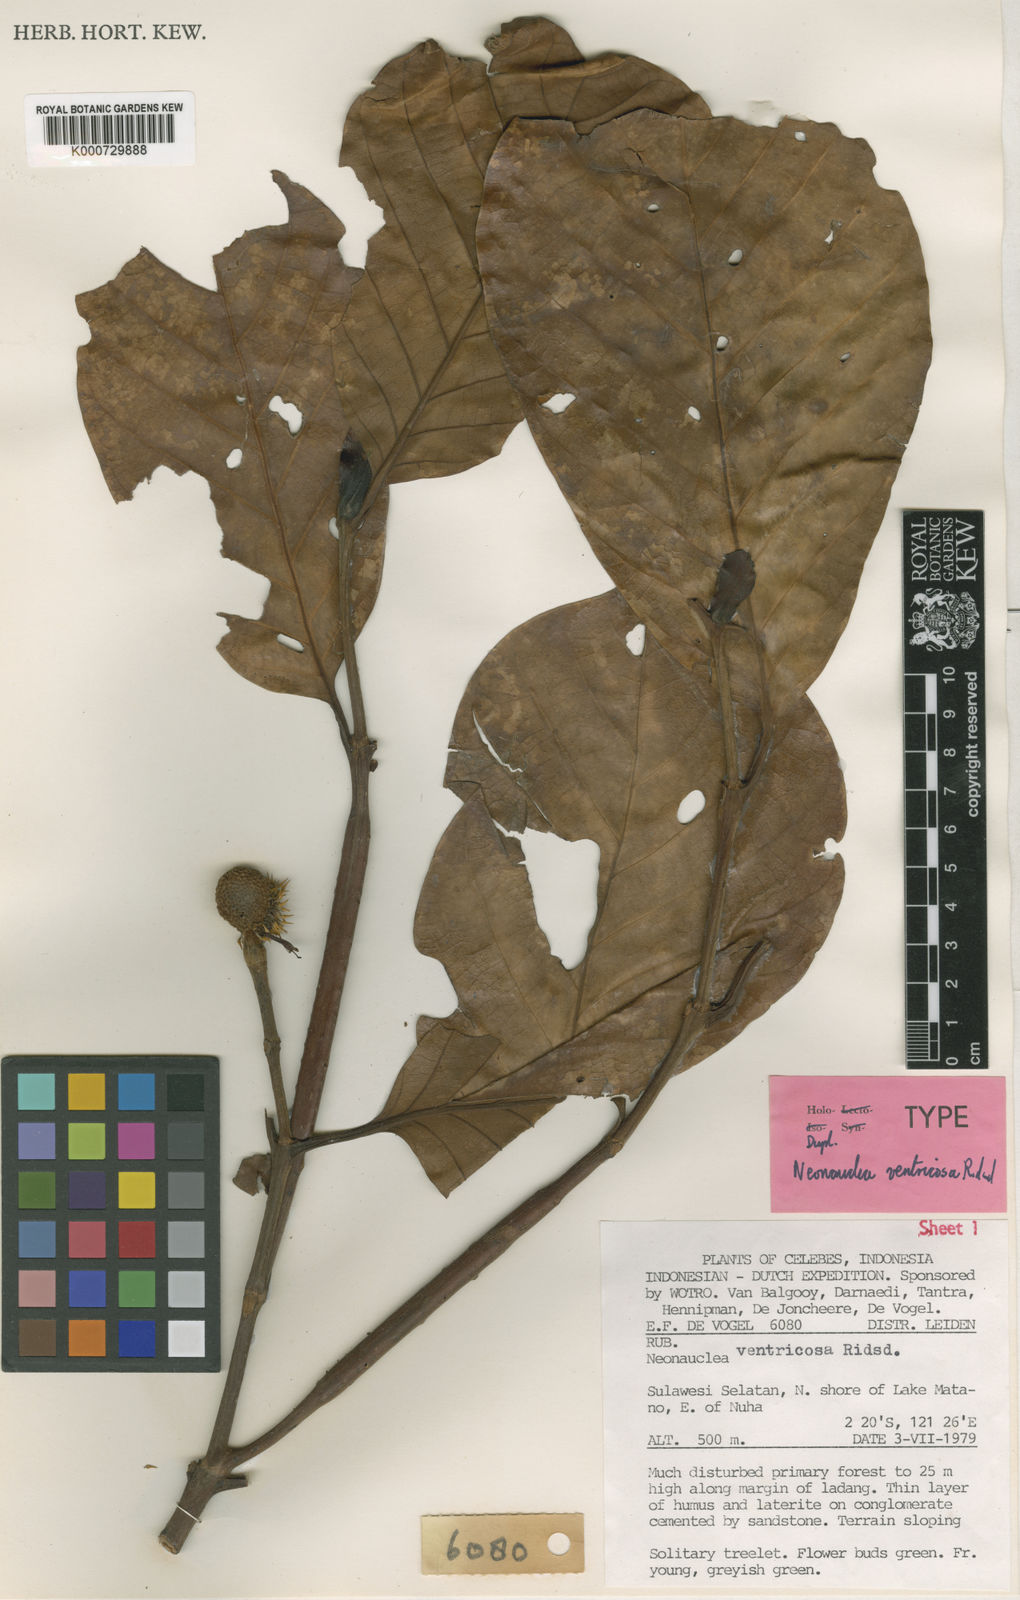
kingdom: Plantae
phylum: Tracheophyta
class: Magnoliopsida
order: Gentianales
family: Rubiaceae
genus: Neonauclea
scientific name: Neonauclea ventricosa
